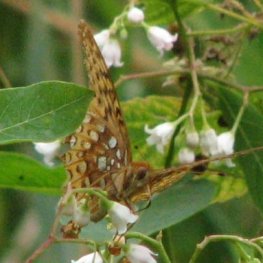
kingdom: Animalia
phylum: Arthropoda
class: Insecta
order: Lepidoptera
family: Nymphalidae
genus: Speyeria
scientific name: Speyeria cybele
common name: Great Spangled Fritillary
